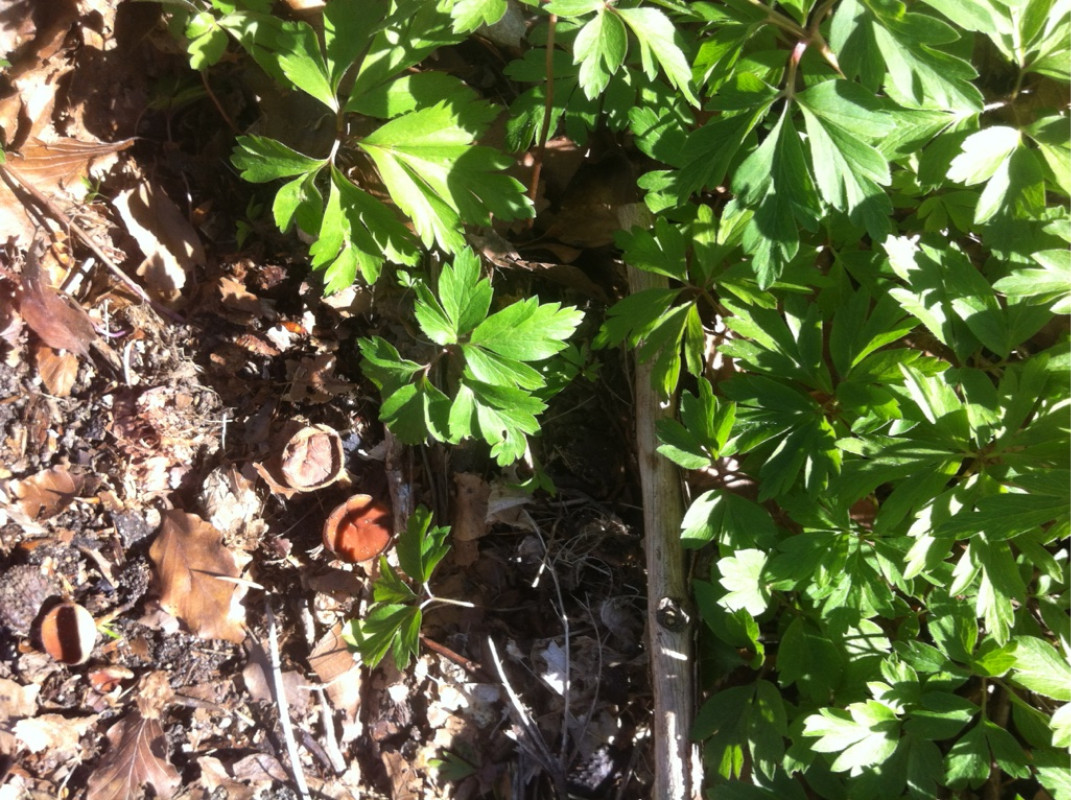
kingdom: Fungi
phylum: Ascomycota
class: Leotiomycetes
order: Helotiales
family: Sclerotiniaceae
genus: Dumontinia
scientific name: Dumontinia tuberosa
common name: anemone-knoldskive
